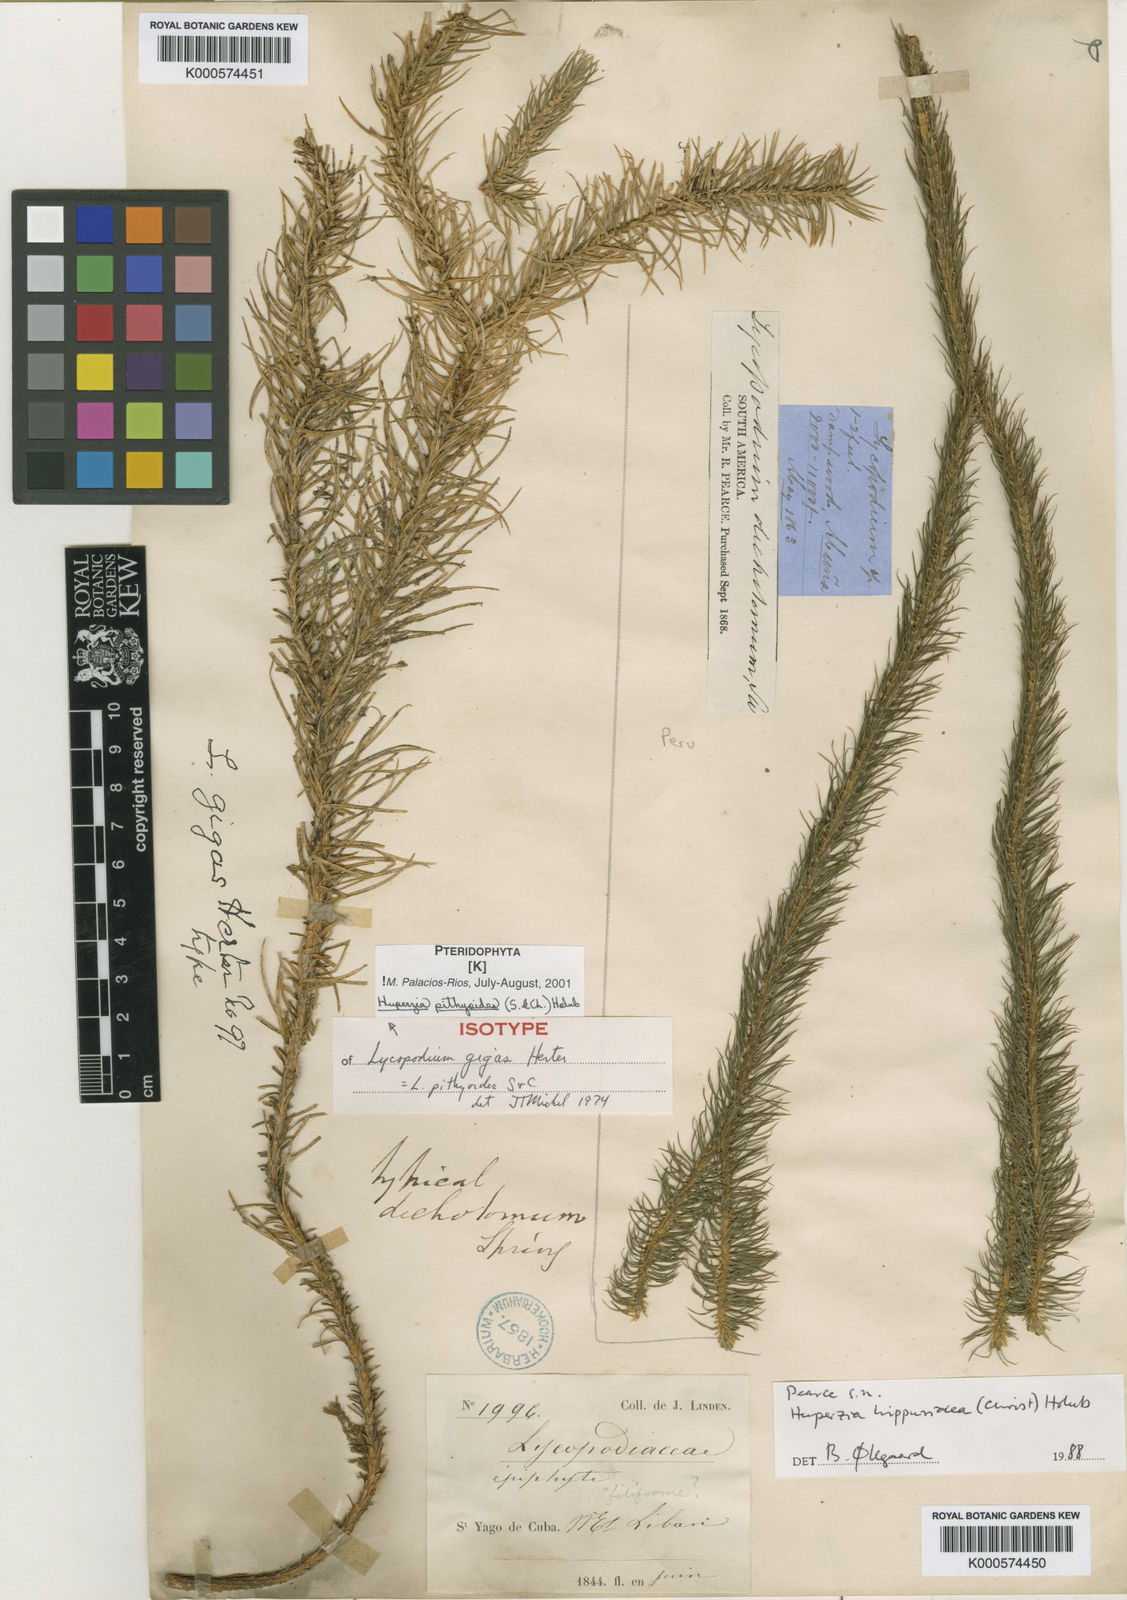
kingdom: Plantae
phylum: Tracheophyta
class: Lycopodiopsida
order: Lycopodiales
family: Lycopodiaceae
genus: Phlegmariurus
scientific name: Phlegmariurus pithyoides
